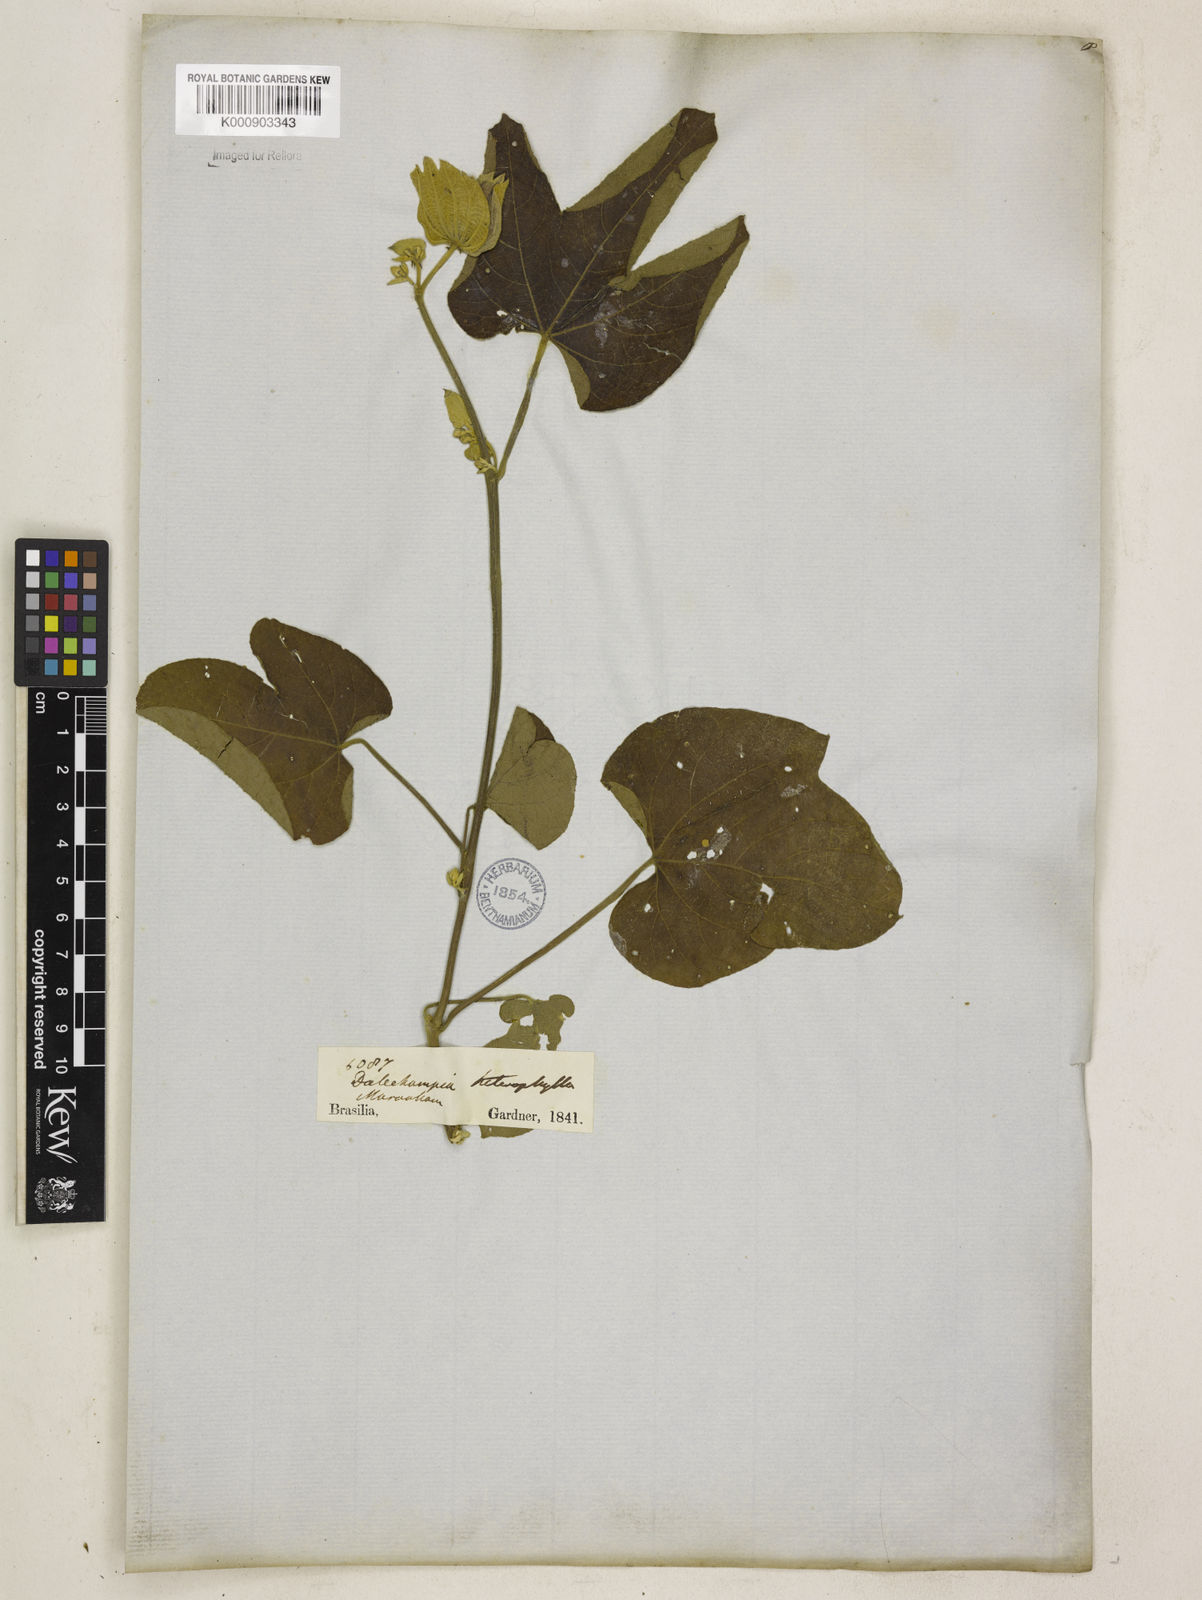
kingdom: Plantae
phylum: Tracheophyta
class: Magnoliopsida
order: Malpighiales
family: Euphorbiaceae
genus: Dalechampia
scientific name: Dalechampia tiliifolia
